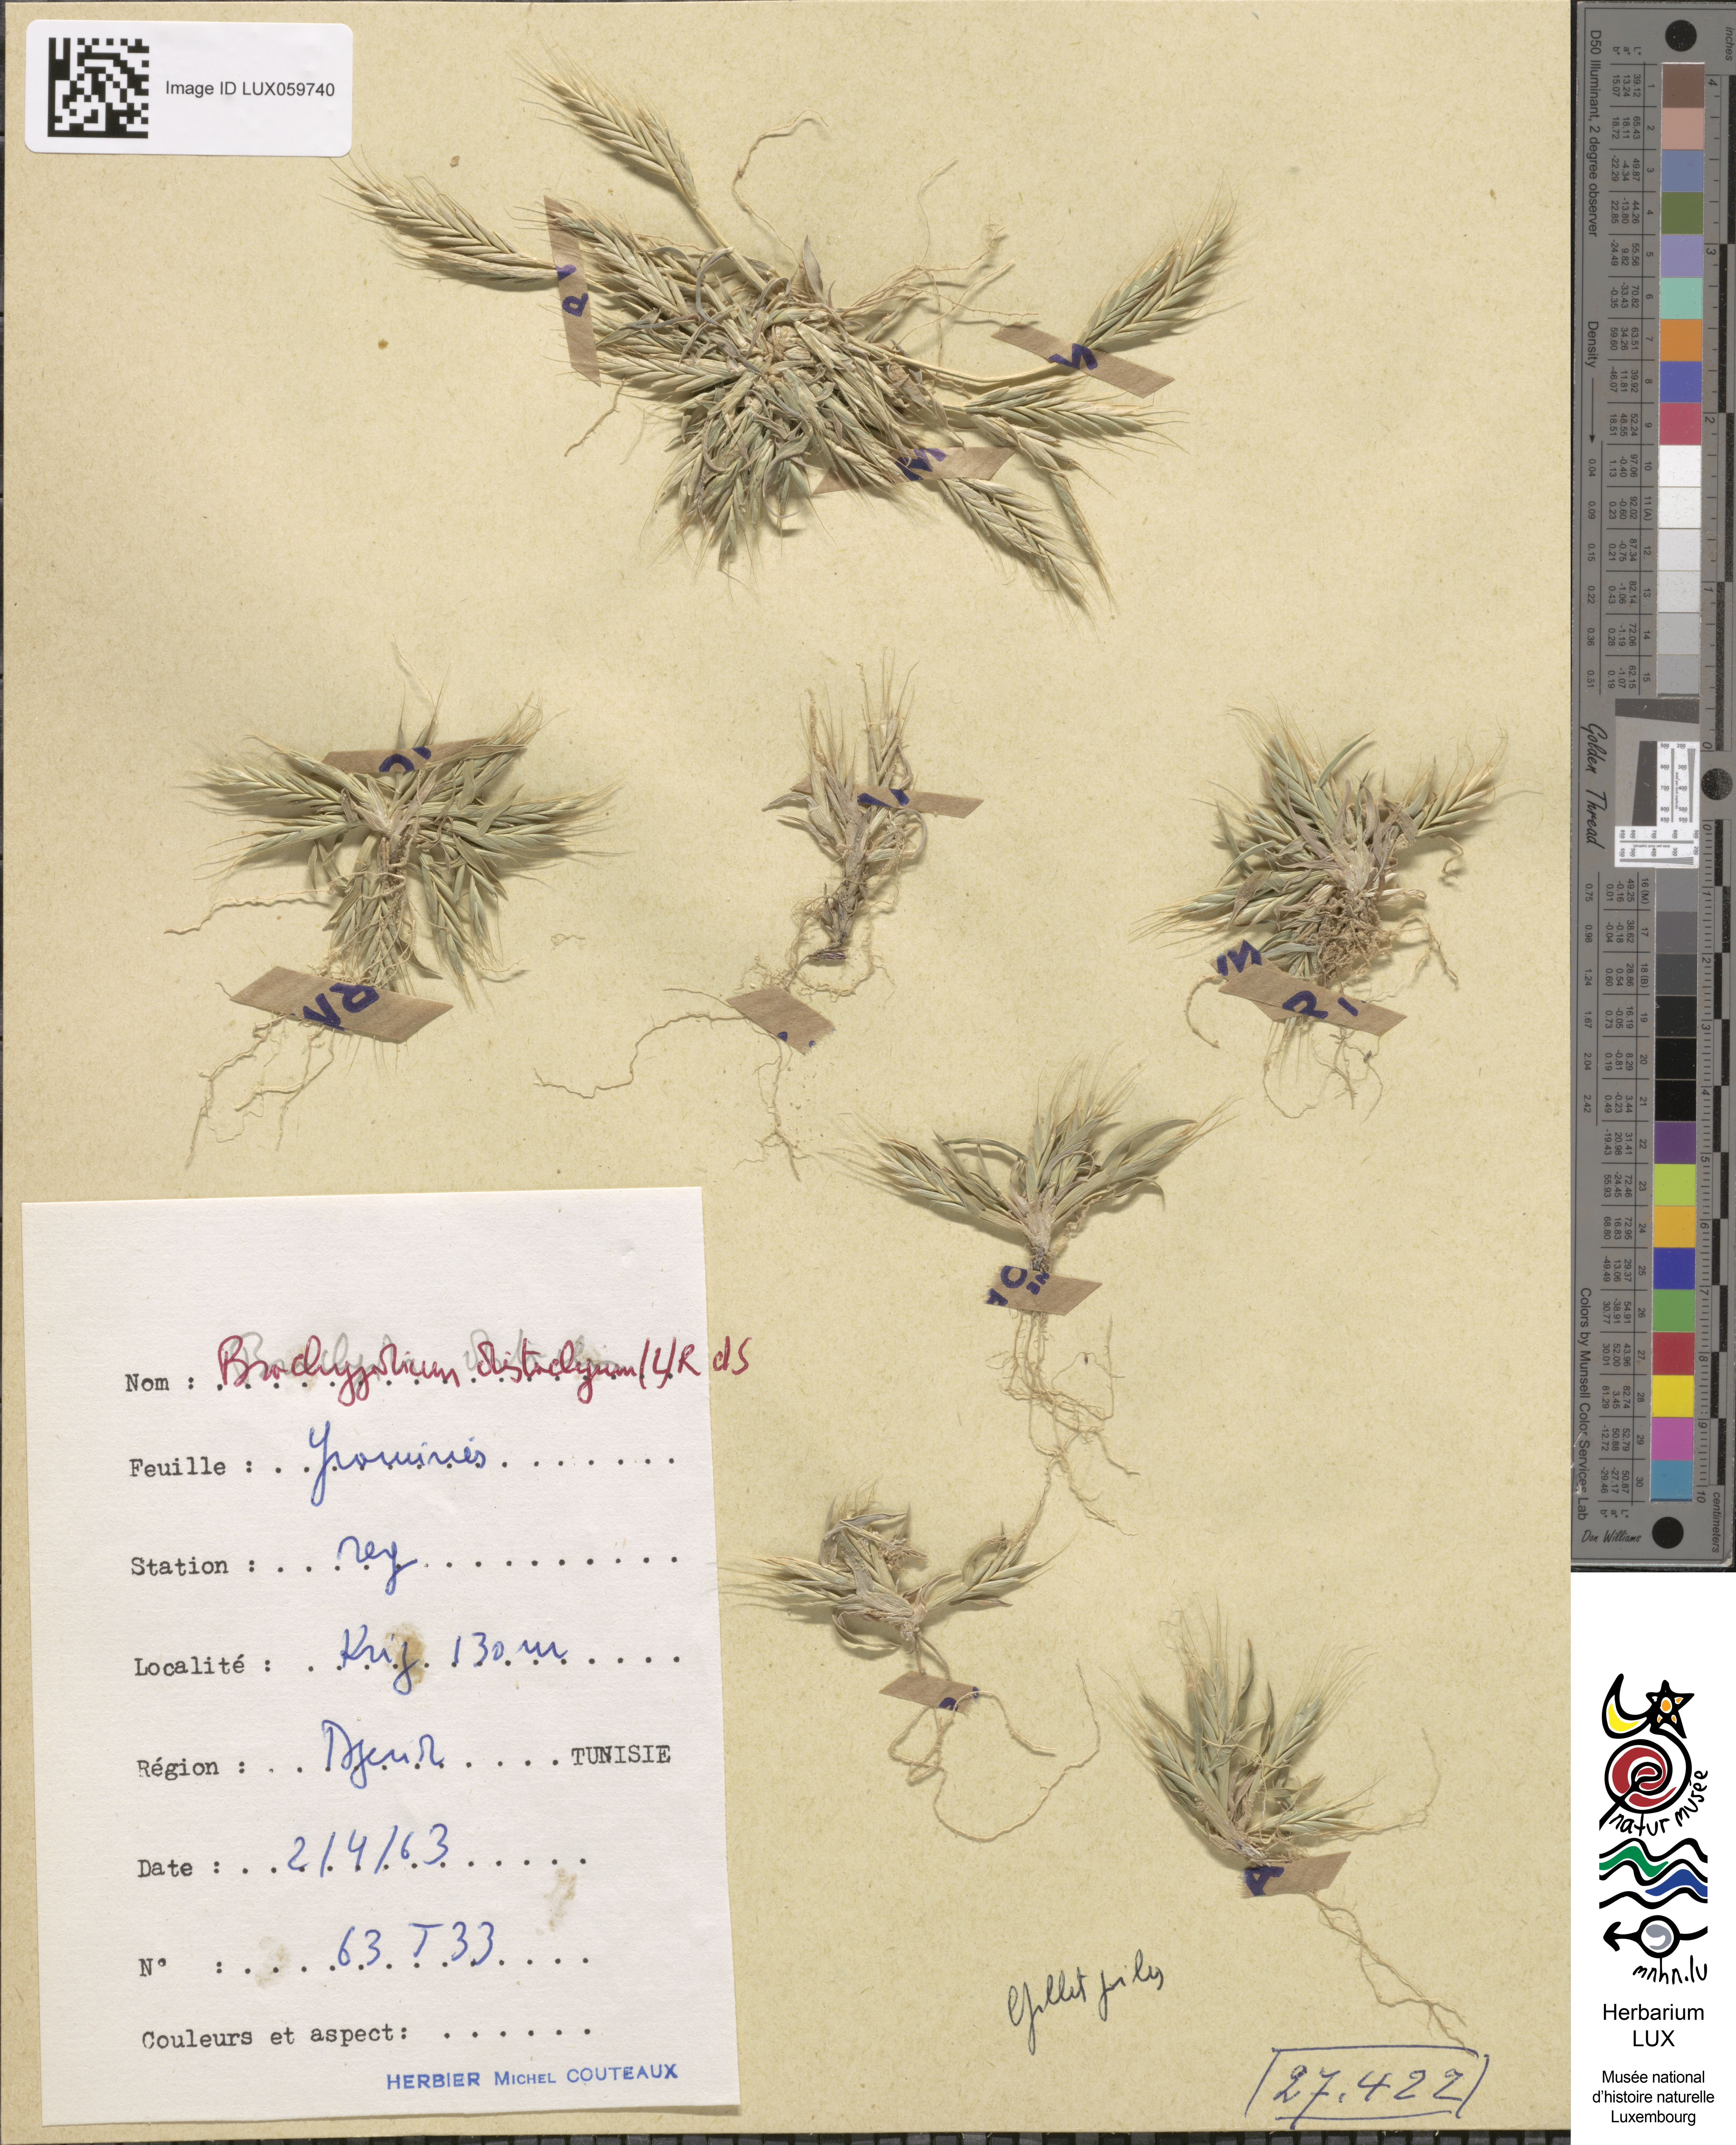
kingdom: Plantae
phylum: Tracheophyta
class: Liliopsida
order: Poales
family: Poaceae
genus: Brachypodium
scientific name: Brachypodium distachyon
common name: Stiff brome
